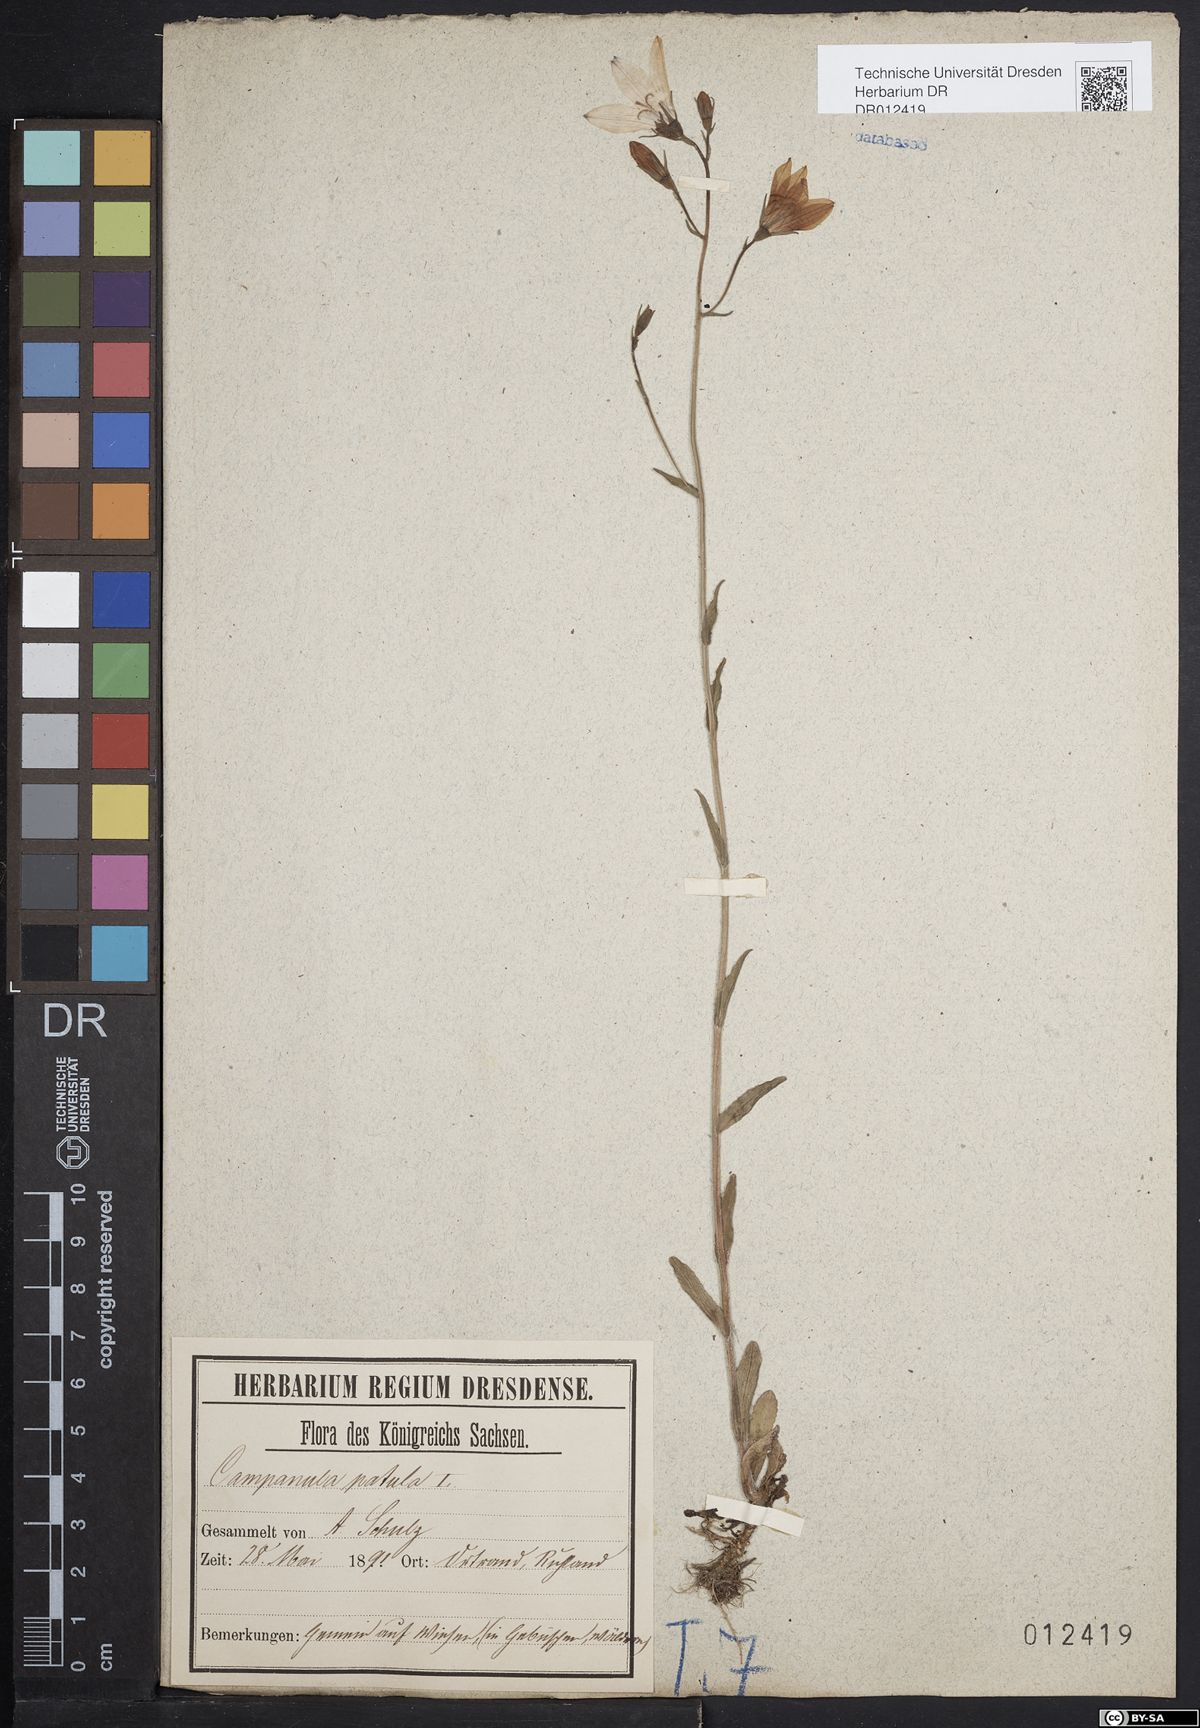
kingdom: Plantae
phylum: Tracheophyta
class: Magnoliopsida
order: Asterales
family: Campanulaceae
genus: Campanula
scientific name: Campanula patula
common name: Spreading bellflower
